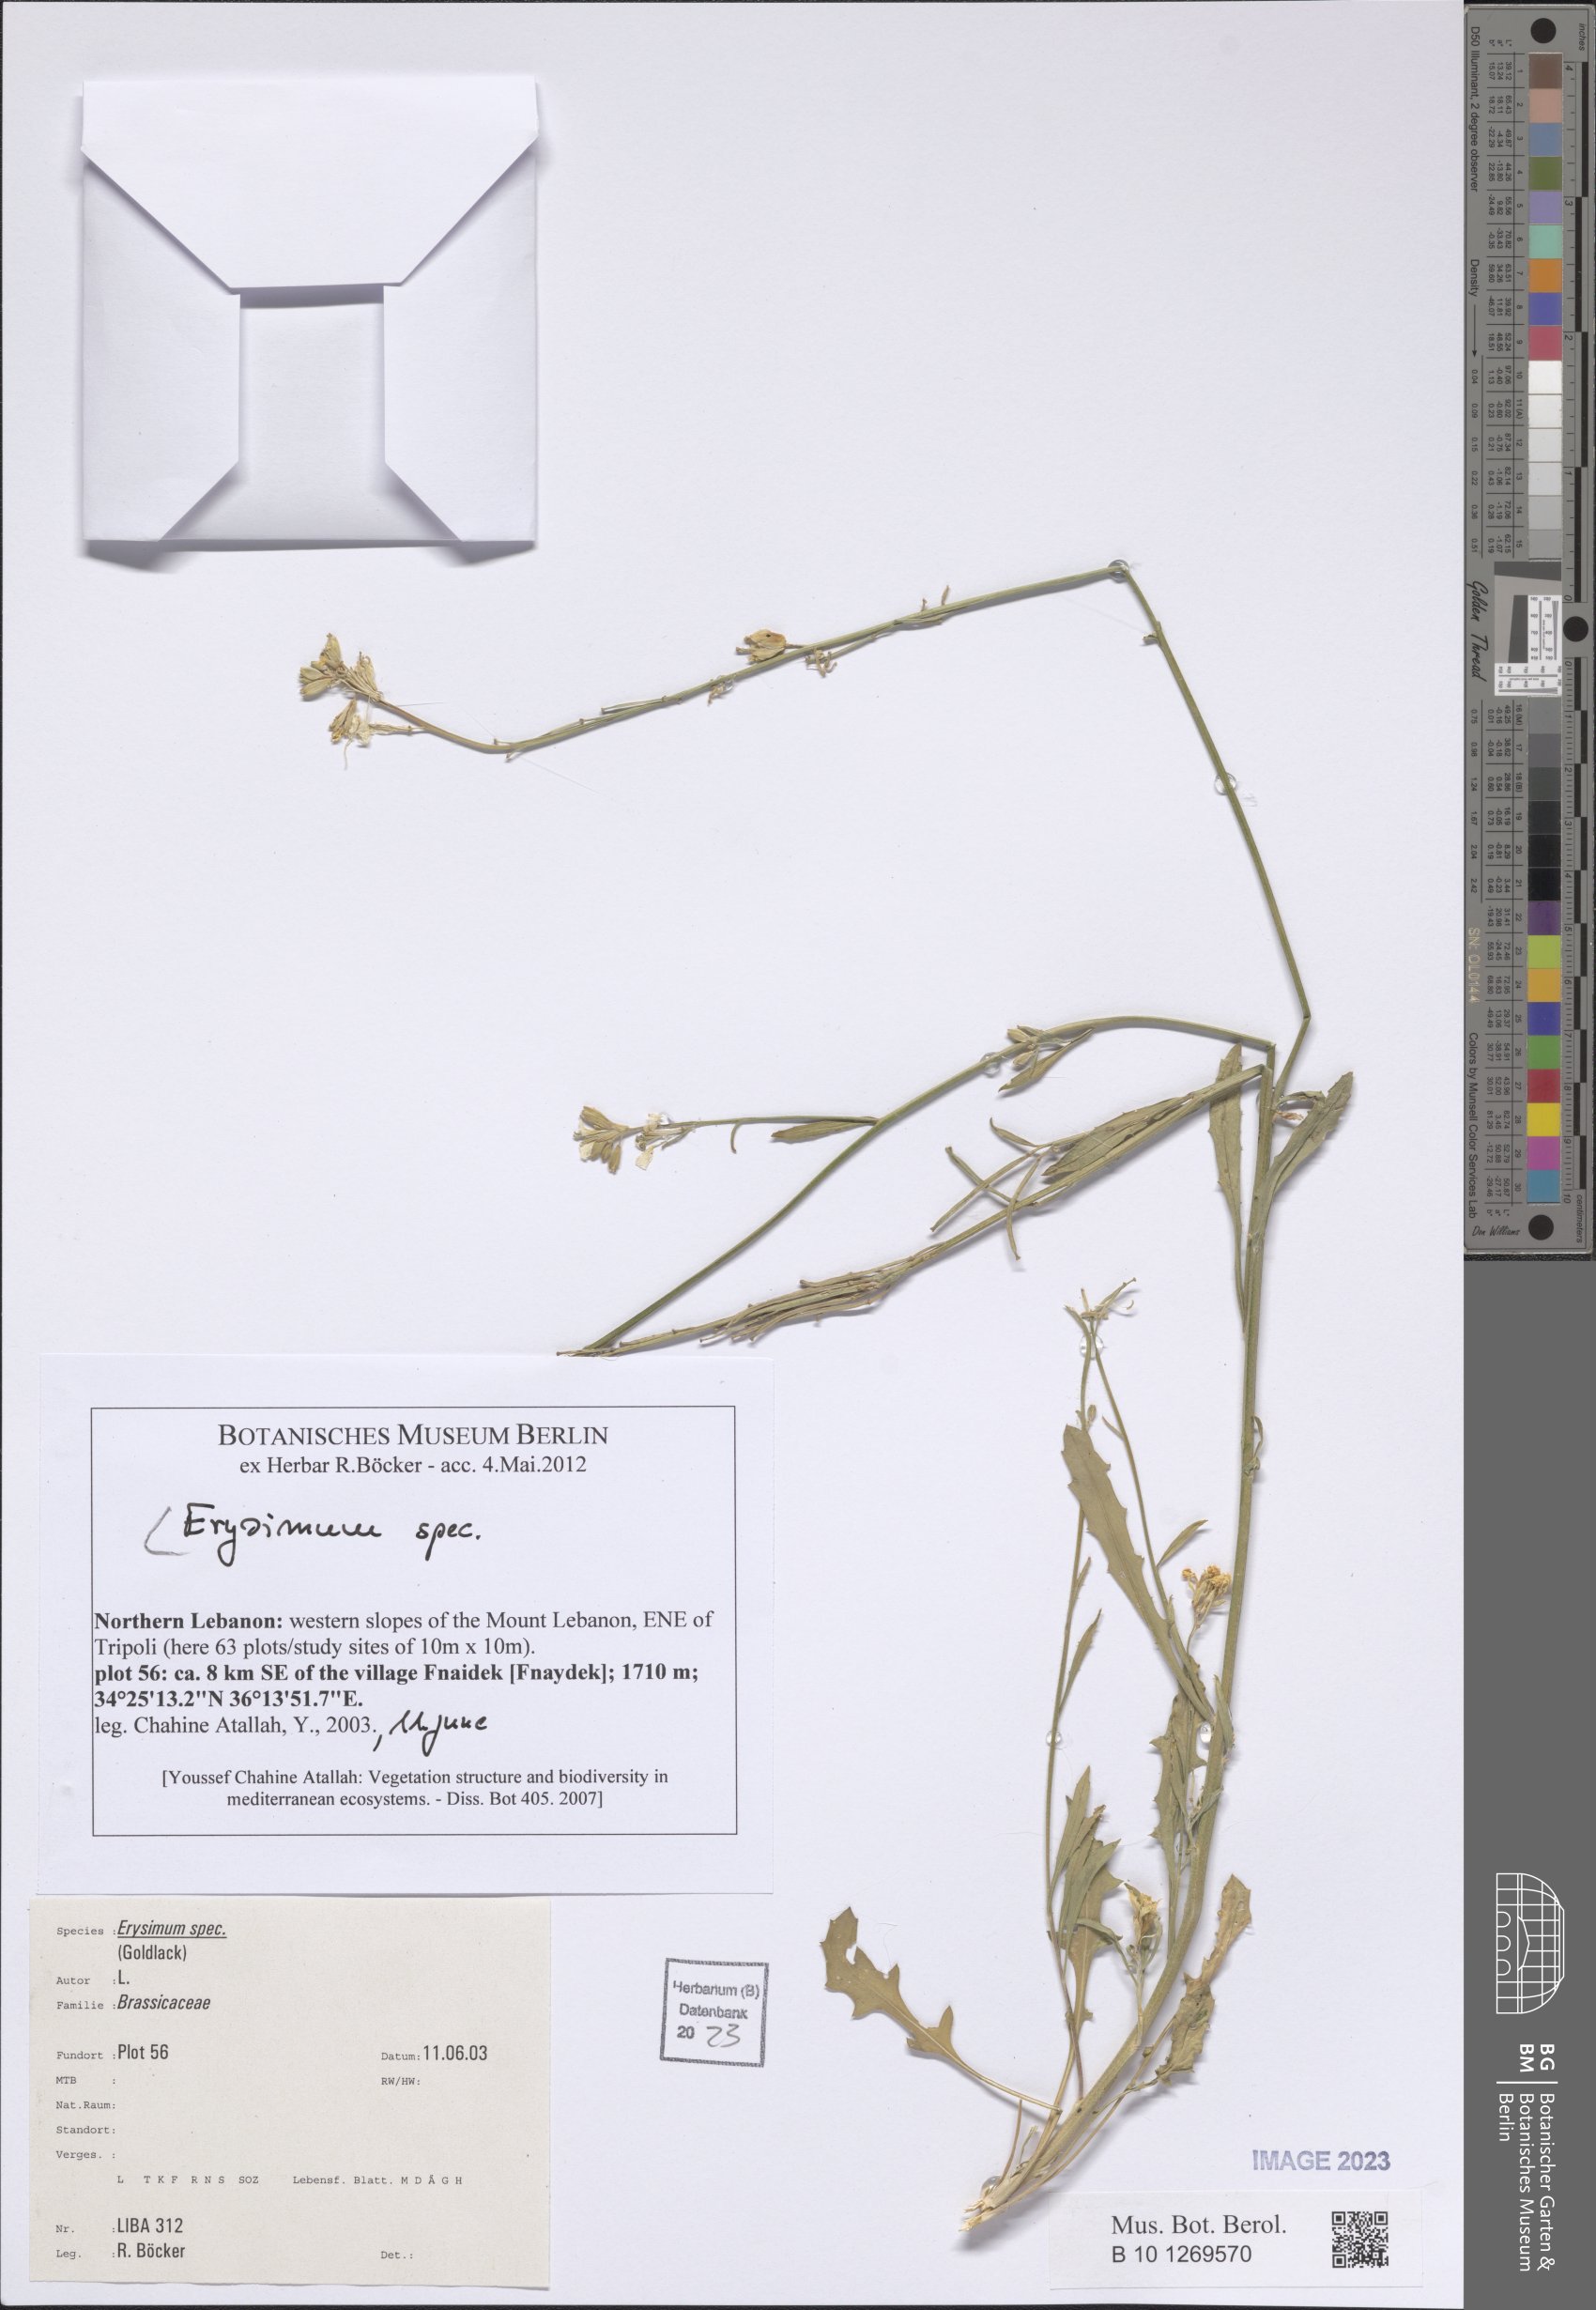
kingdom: Plantae
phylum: Tracheophyta
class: Magnoliopsida
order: Brassicales
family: Brassicaceae
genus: Erysimum
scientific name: Erysimum
